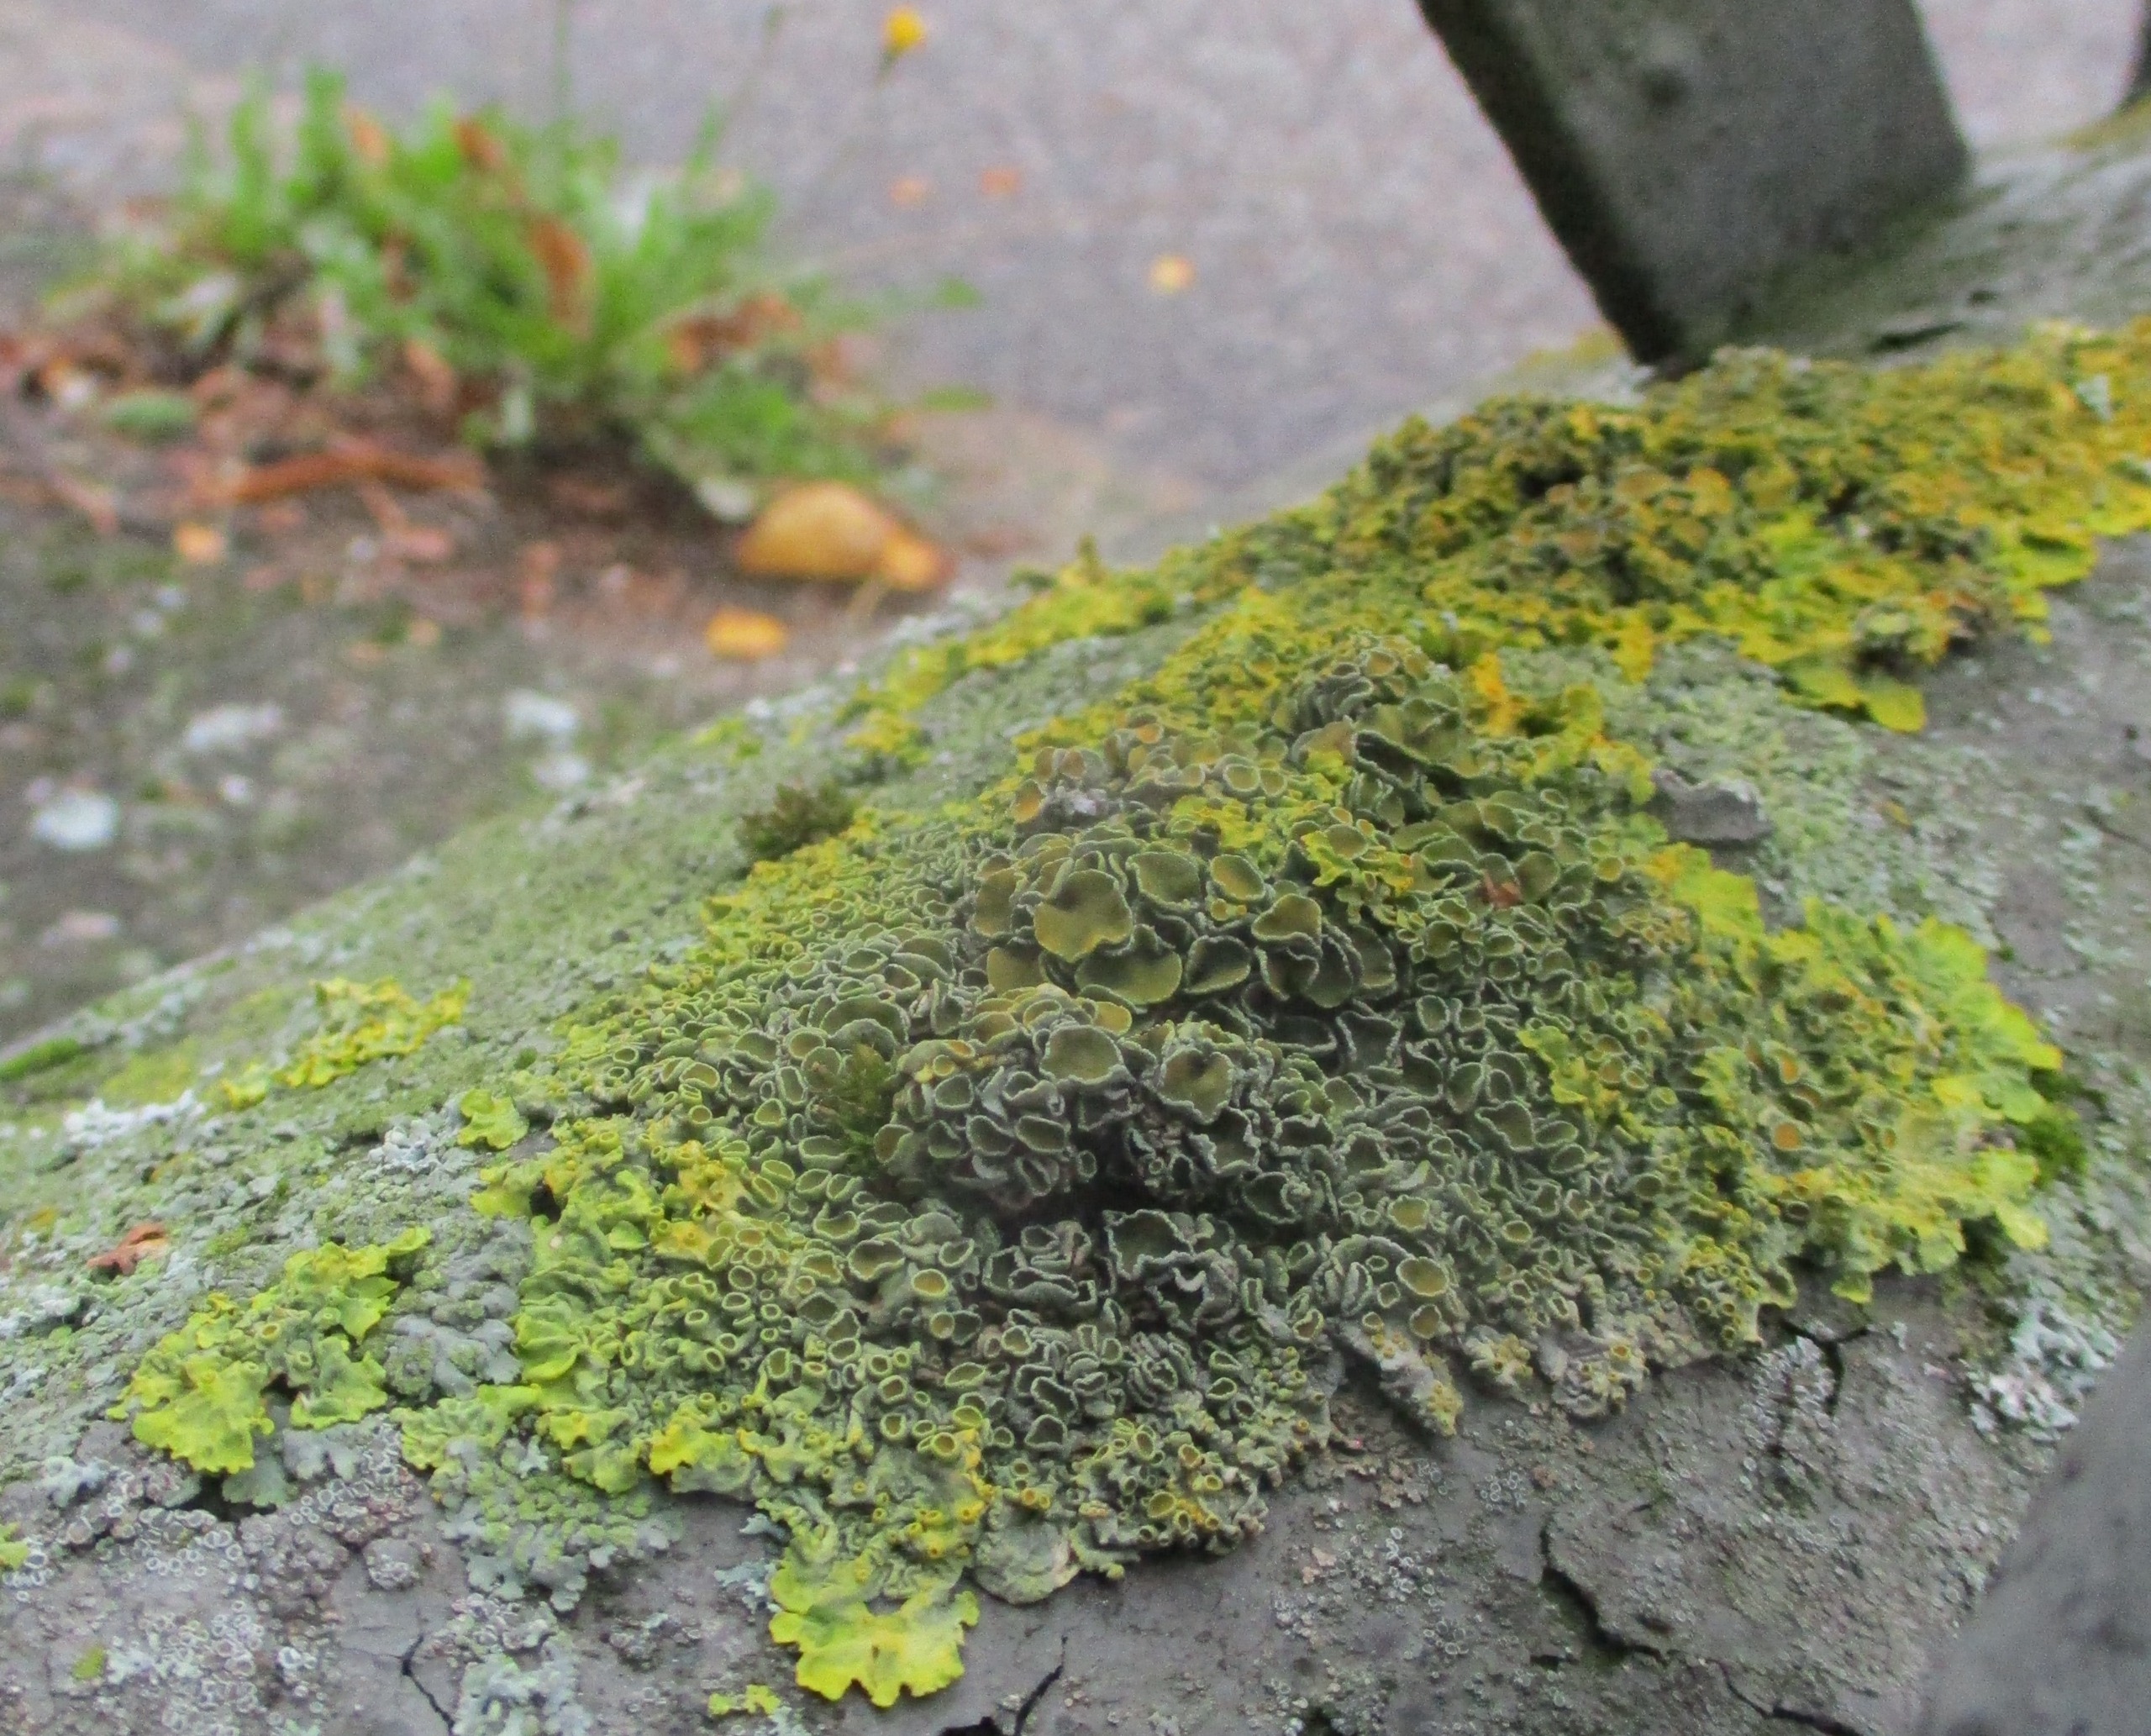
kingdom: Fungi
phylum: Ascomycota
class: Lecanoromycetes
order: Teloschistales
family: Teloschistaceae
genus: Xanthoria
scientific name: Xanthoria parietina
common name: Almindelig væggelav
